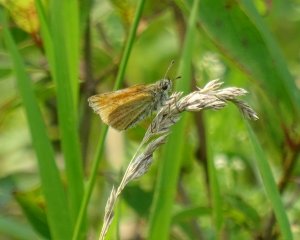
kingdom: Animalia
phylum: Arthropoda
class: Insecta
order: Lepidoptera
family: Hesperiidae
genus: Thymelicus
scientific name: Thymelicus lineola
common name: European Skipper
